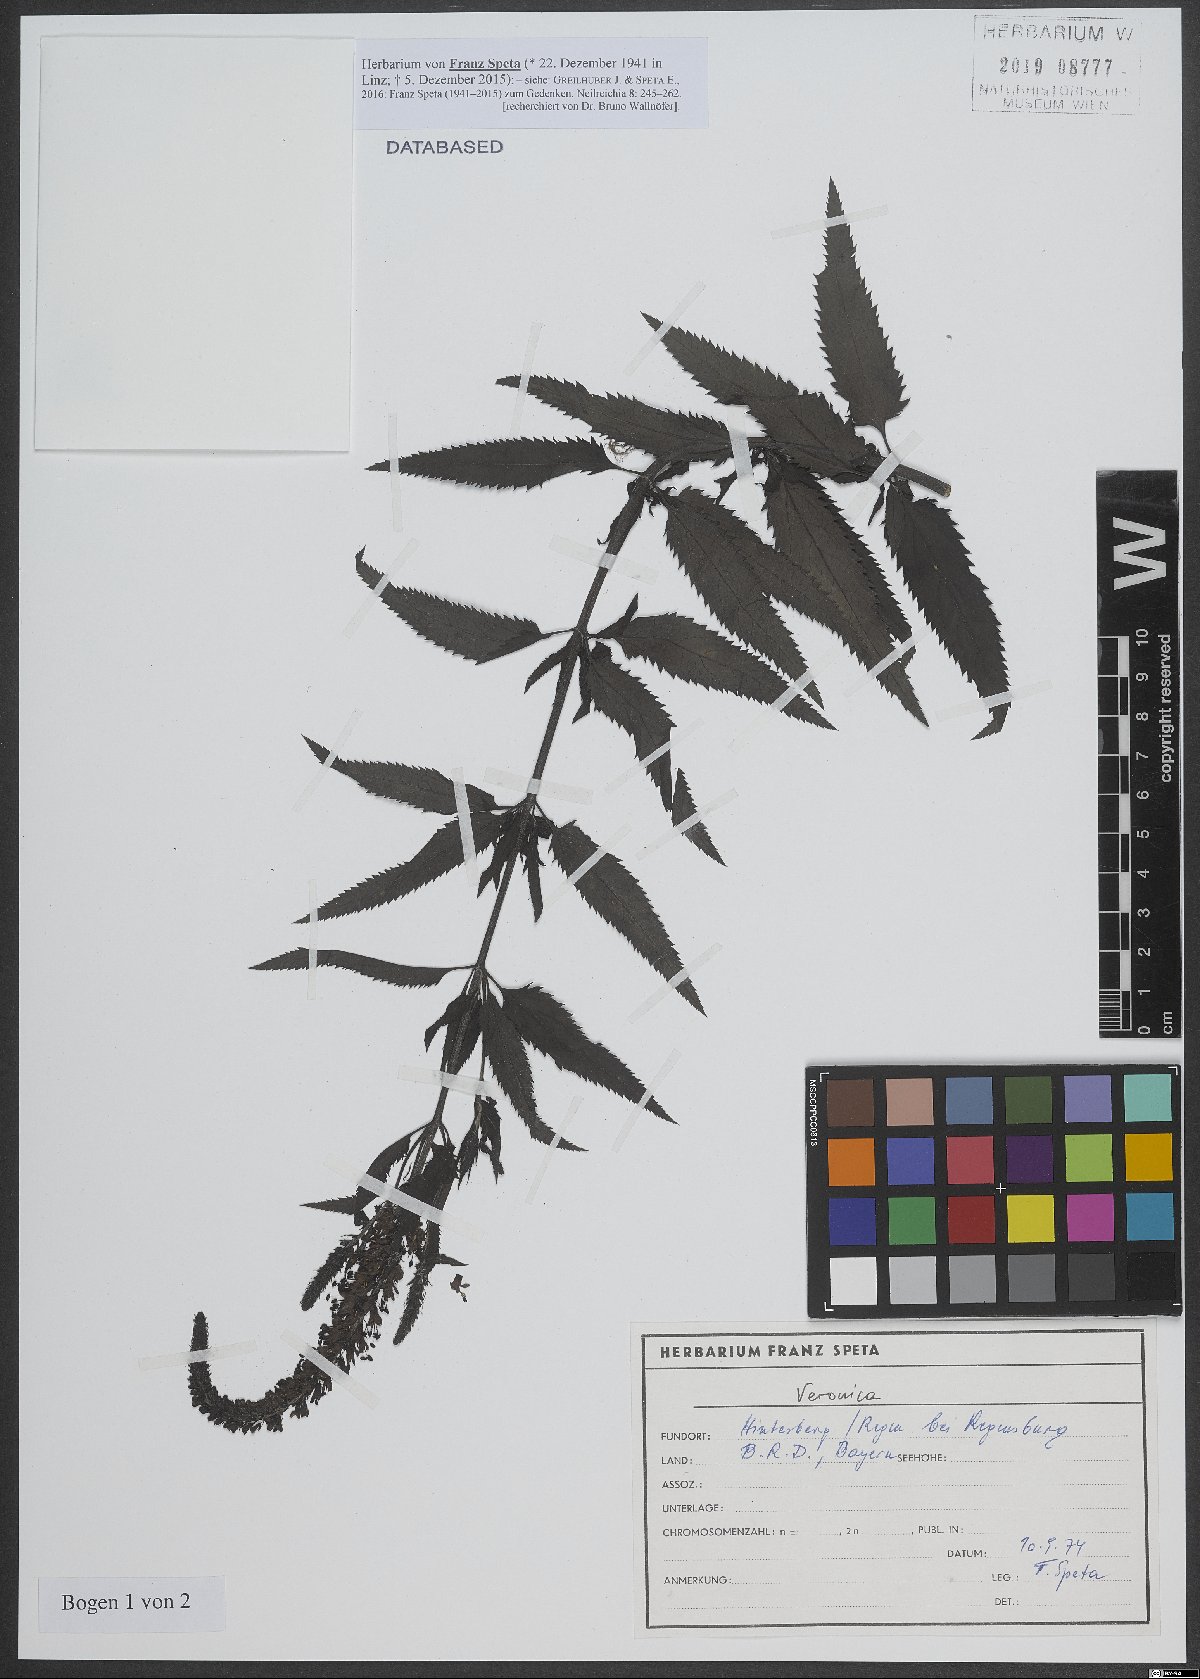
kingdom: Plantae
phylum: Tracheophyta
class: Magnoliopsida
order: Lamiales
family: Plantaginaceae
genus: Veronica
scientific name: Veronica
